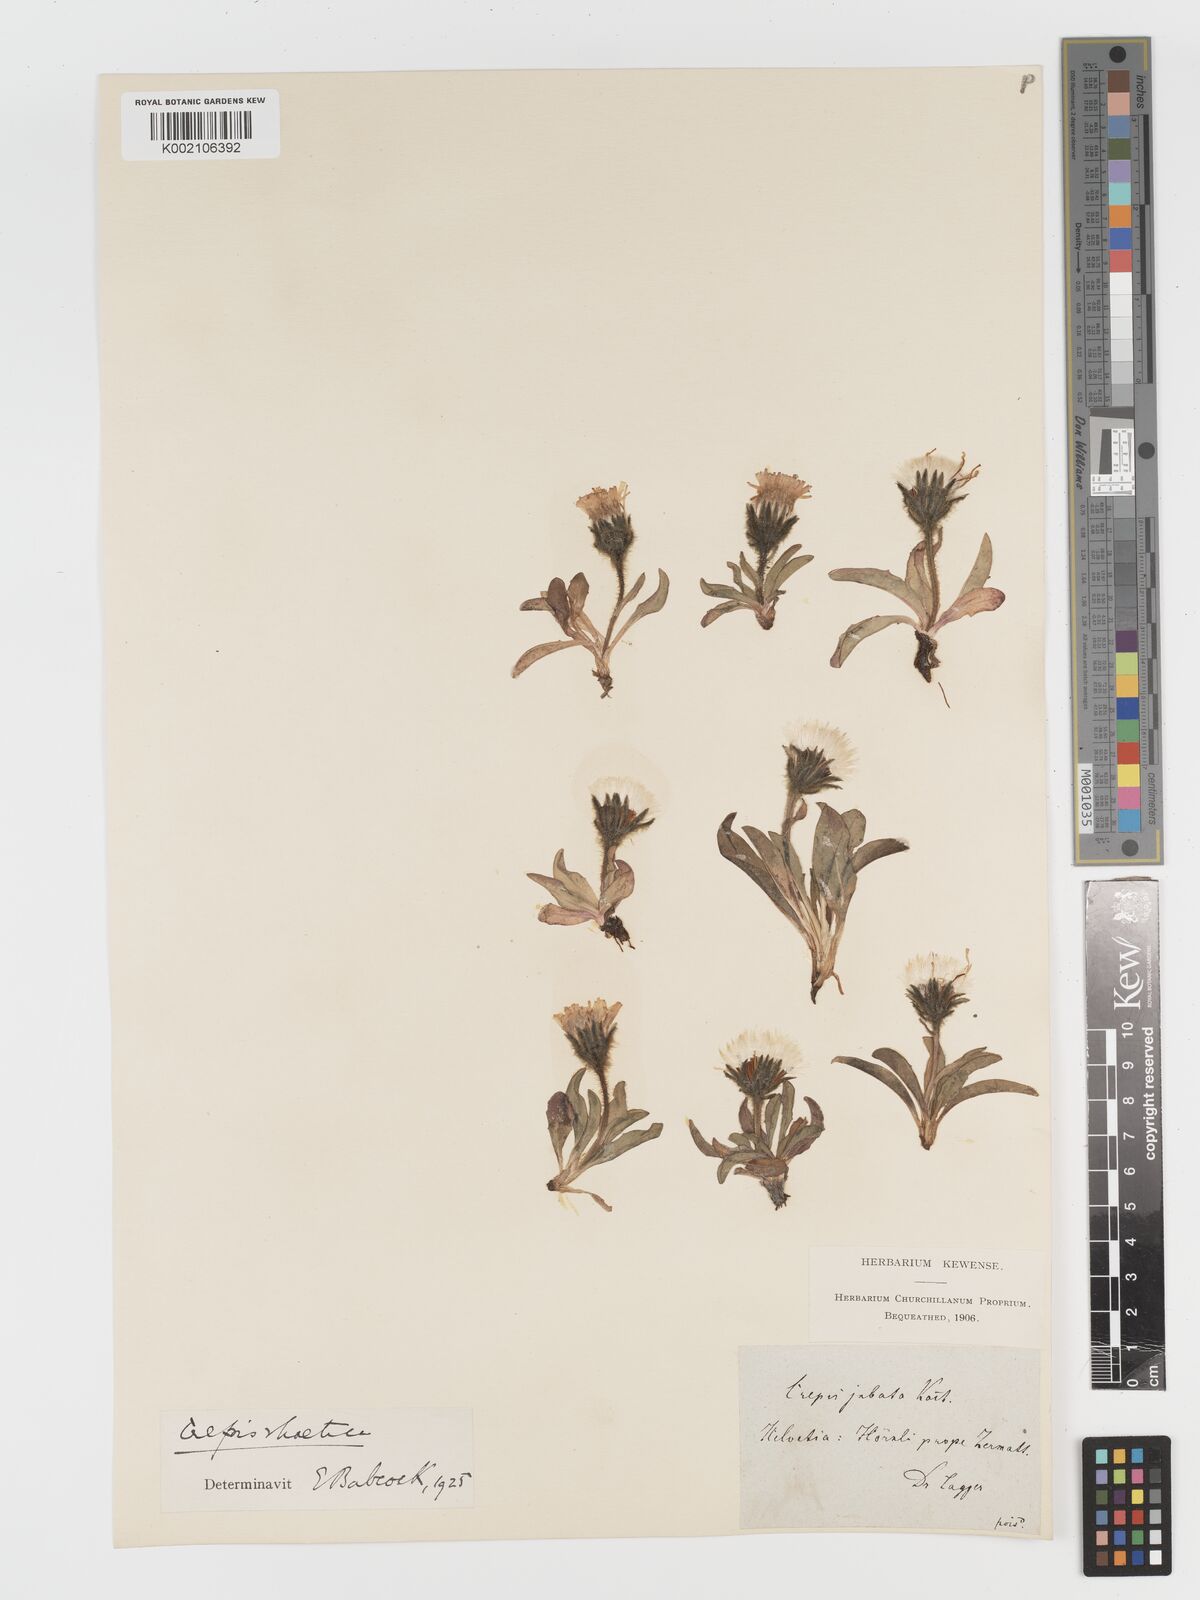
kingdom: Plantae
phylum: Tracheophyta
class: Magnoliopsida
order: Asterales
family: Asteraceae
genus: Crepis
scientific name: Crepis rhaetica
